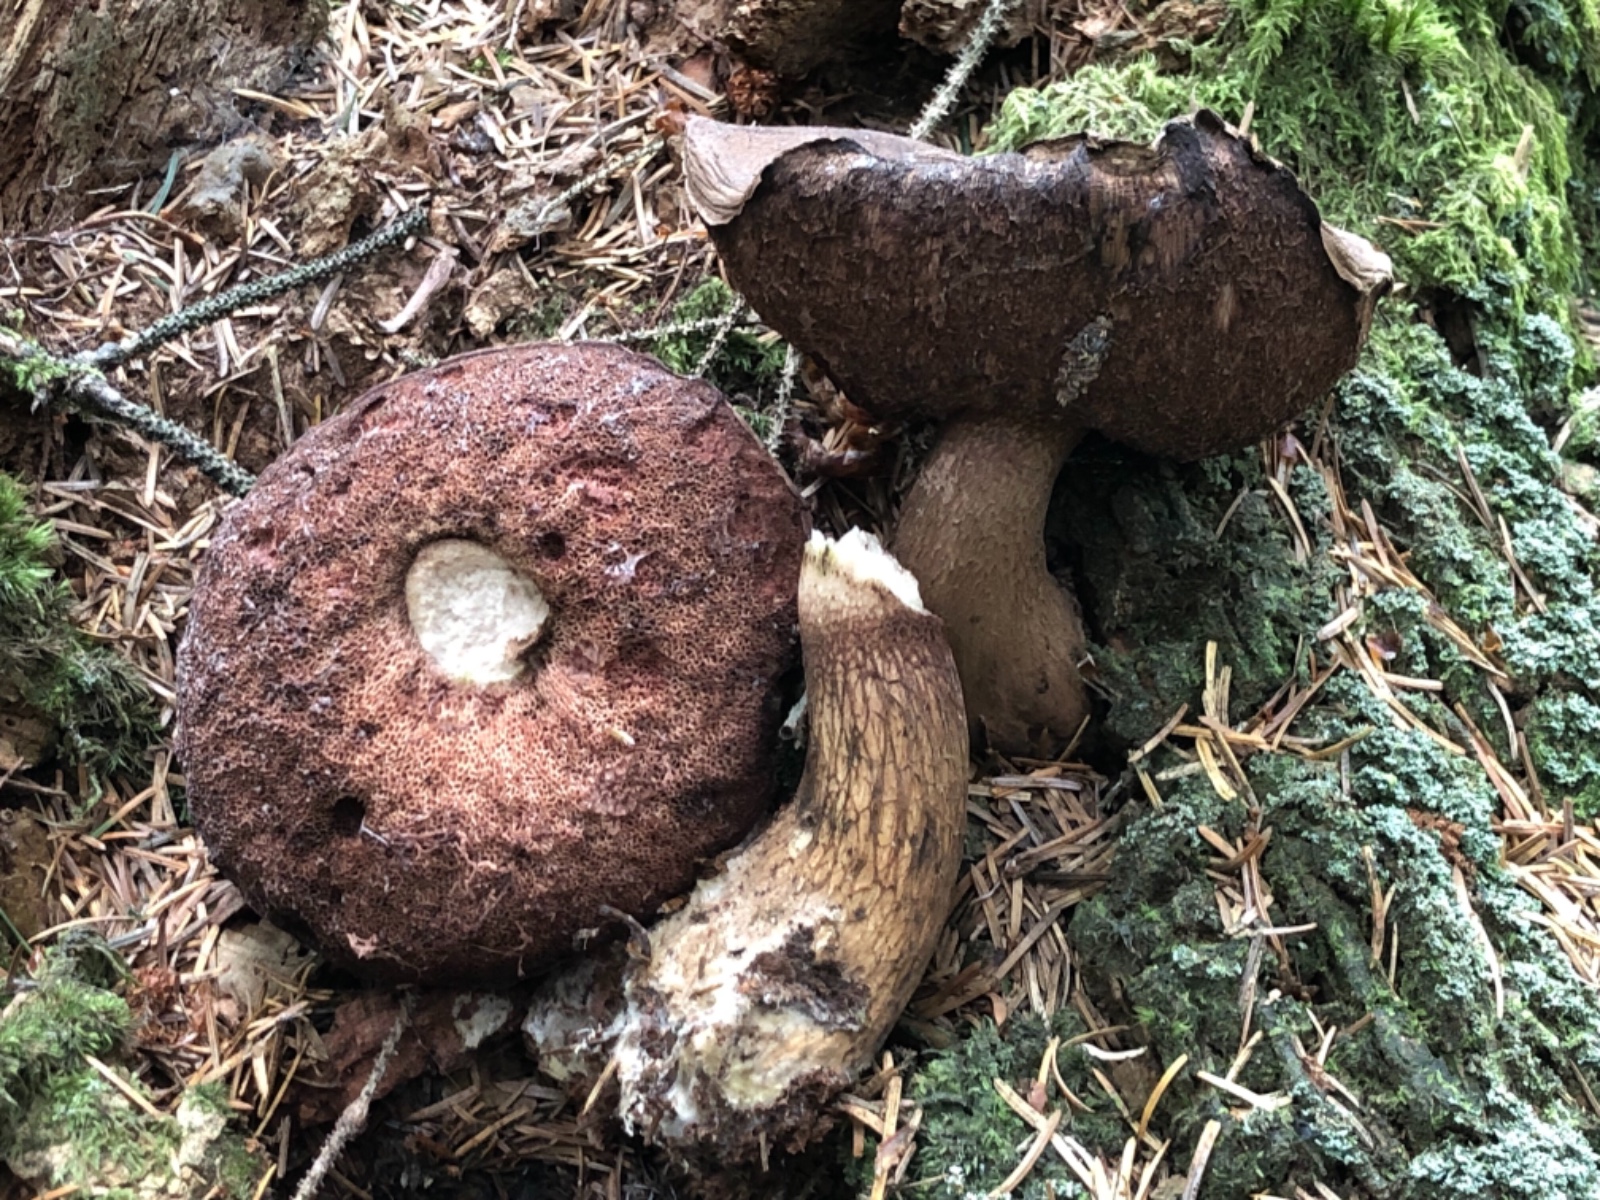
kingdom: Fungi
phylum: Basidiomycota
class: Agaricomycetes
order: Boletales
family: Boletaceae
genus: Tylopilus
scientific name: Tylopilus felleus
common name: galderørhat
